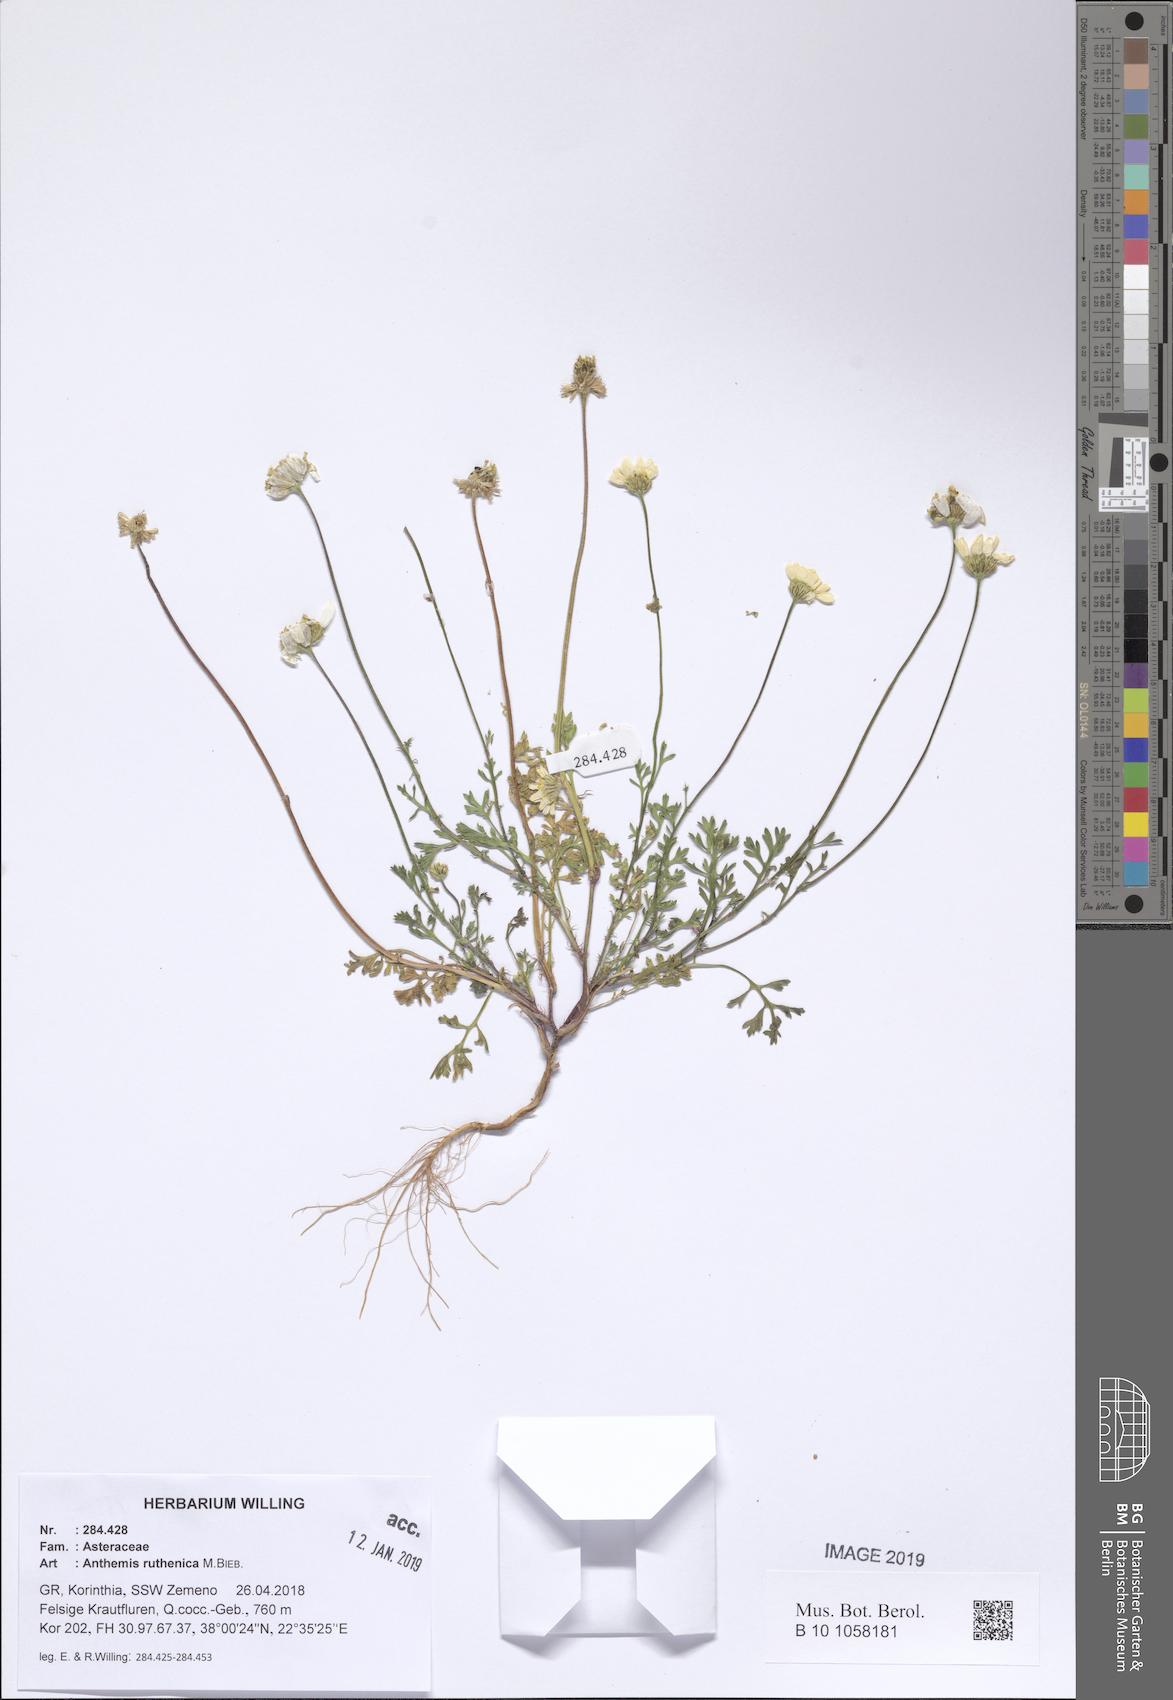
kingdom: Plantae
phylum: Tracheophyta
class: Magnoliopsida
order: Asterales
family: Asteraceae
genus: Anthemis
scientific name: Anthemis ruthenica
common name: Eastern chamomile
